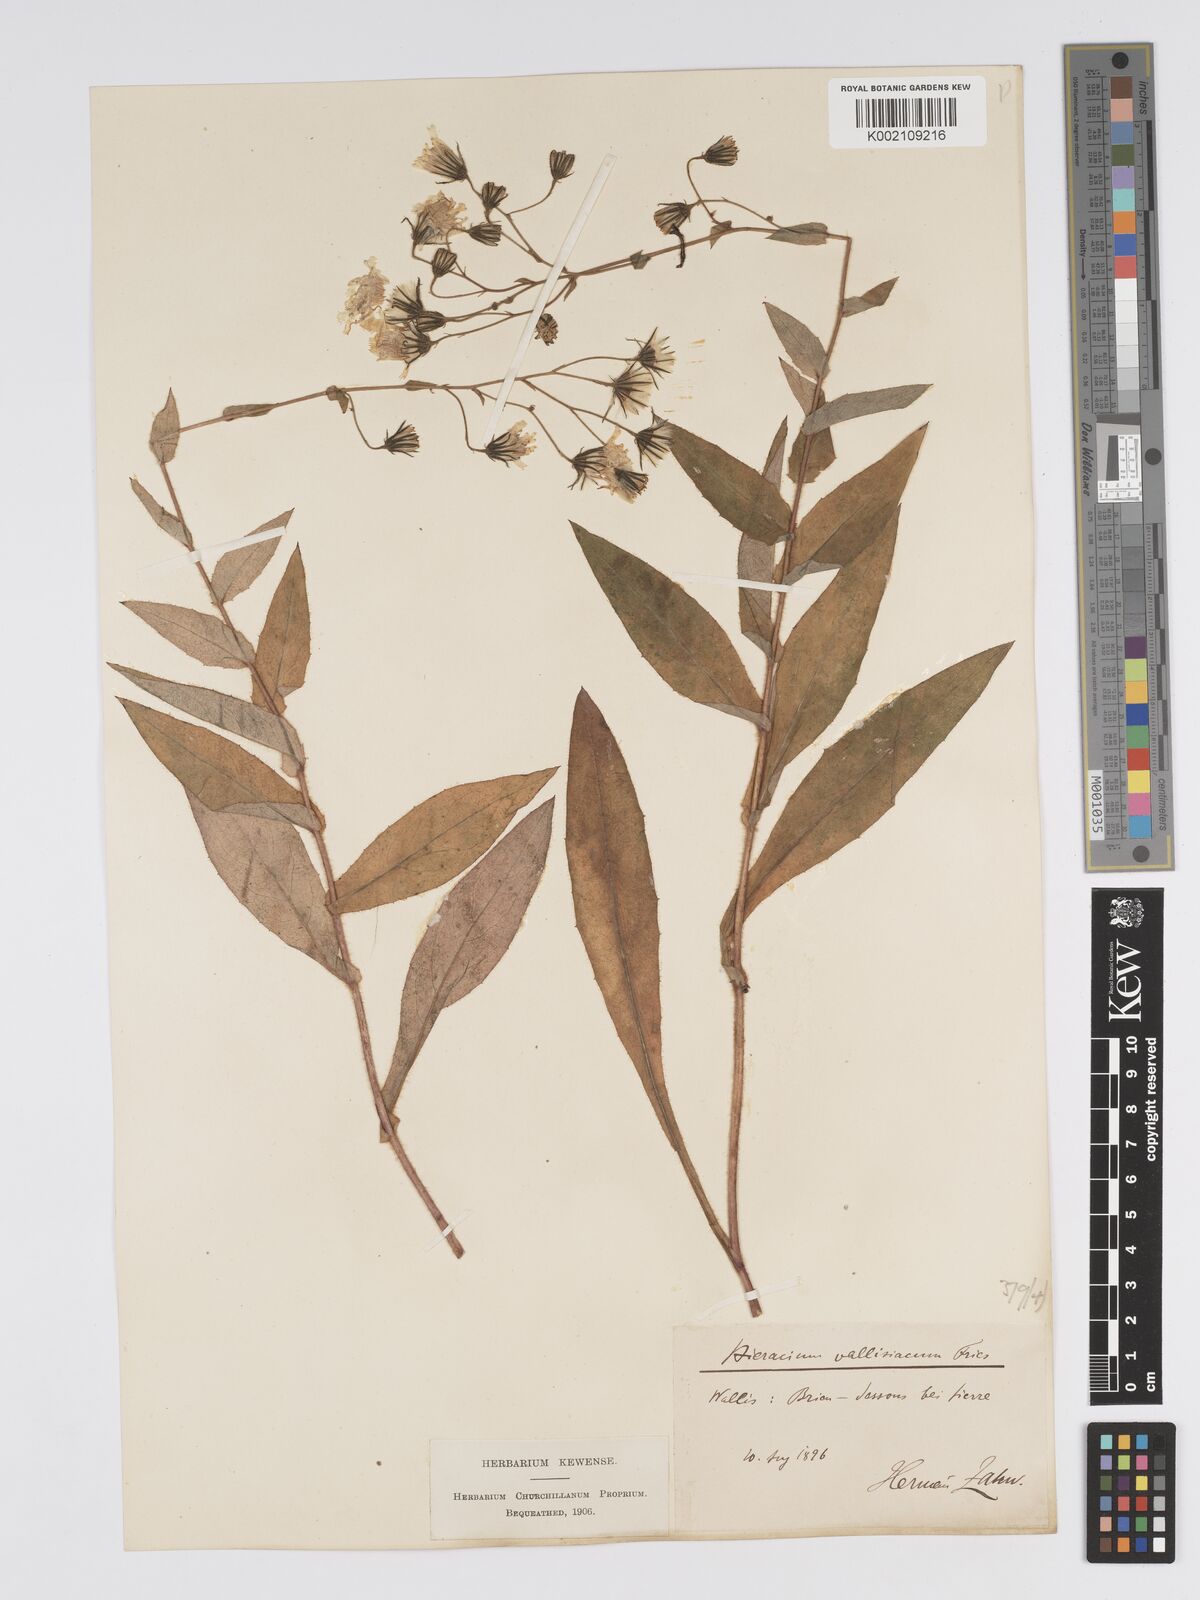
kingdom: Plantae
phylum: Tracheophyta
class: Magnoliopsida
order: Asterales
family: Asteraceae
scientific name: Asteraceae
